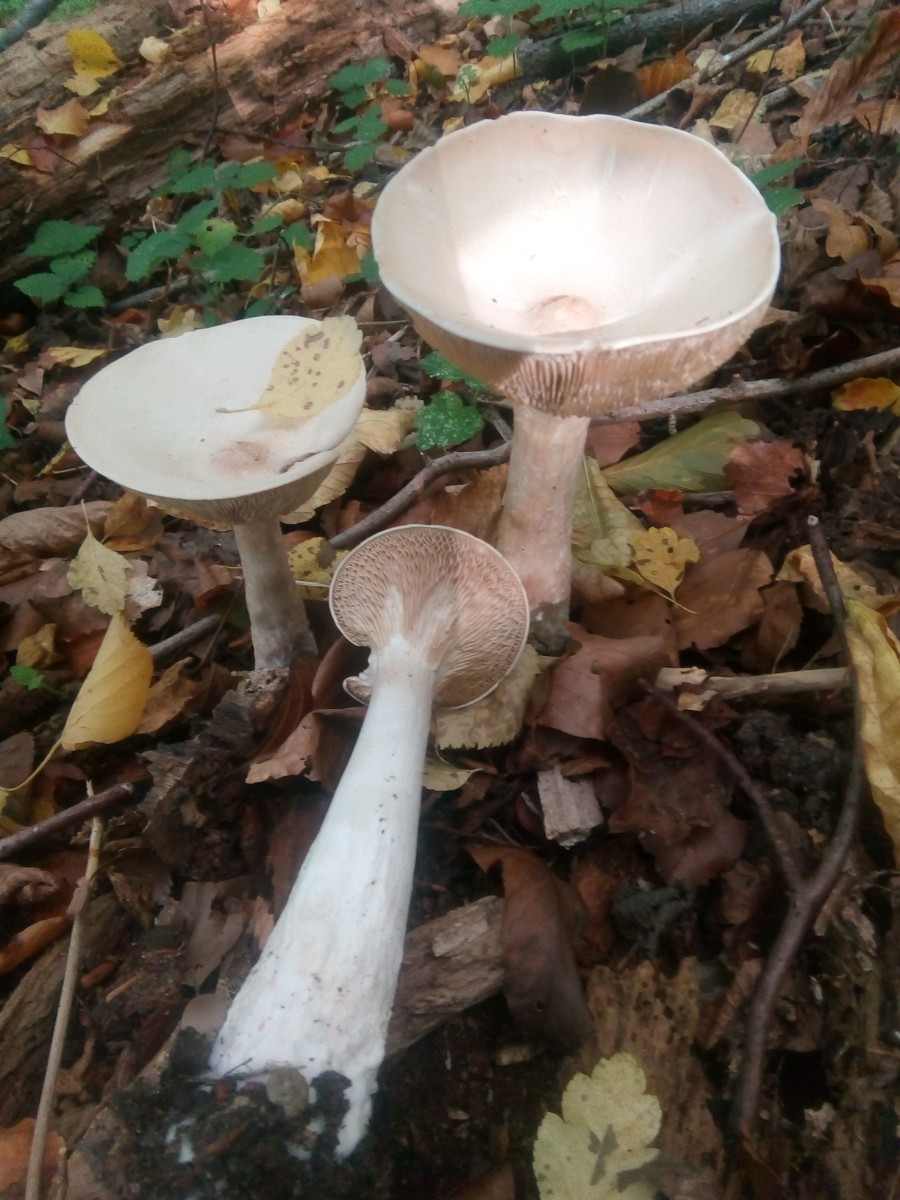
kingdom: Fungi
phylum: Basidiomycota
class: Agaricomycetes
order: Agaricales
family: Tricholomataceae
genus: Infundibulicybe
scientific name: Infundibulicybe geotropa
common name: stor tragthat
